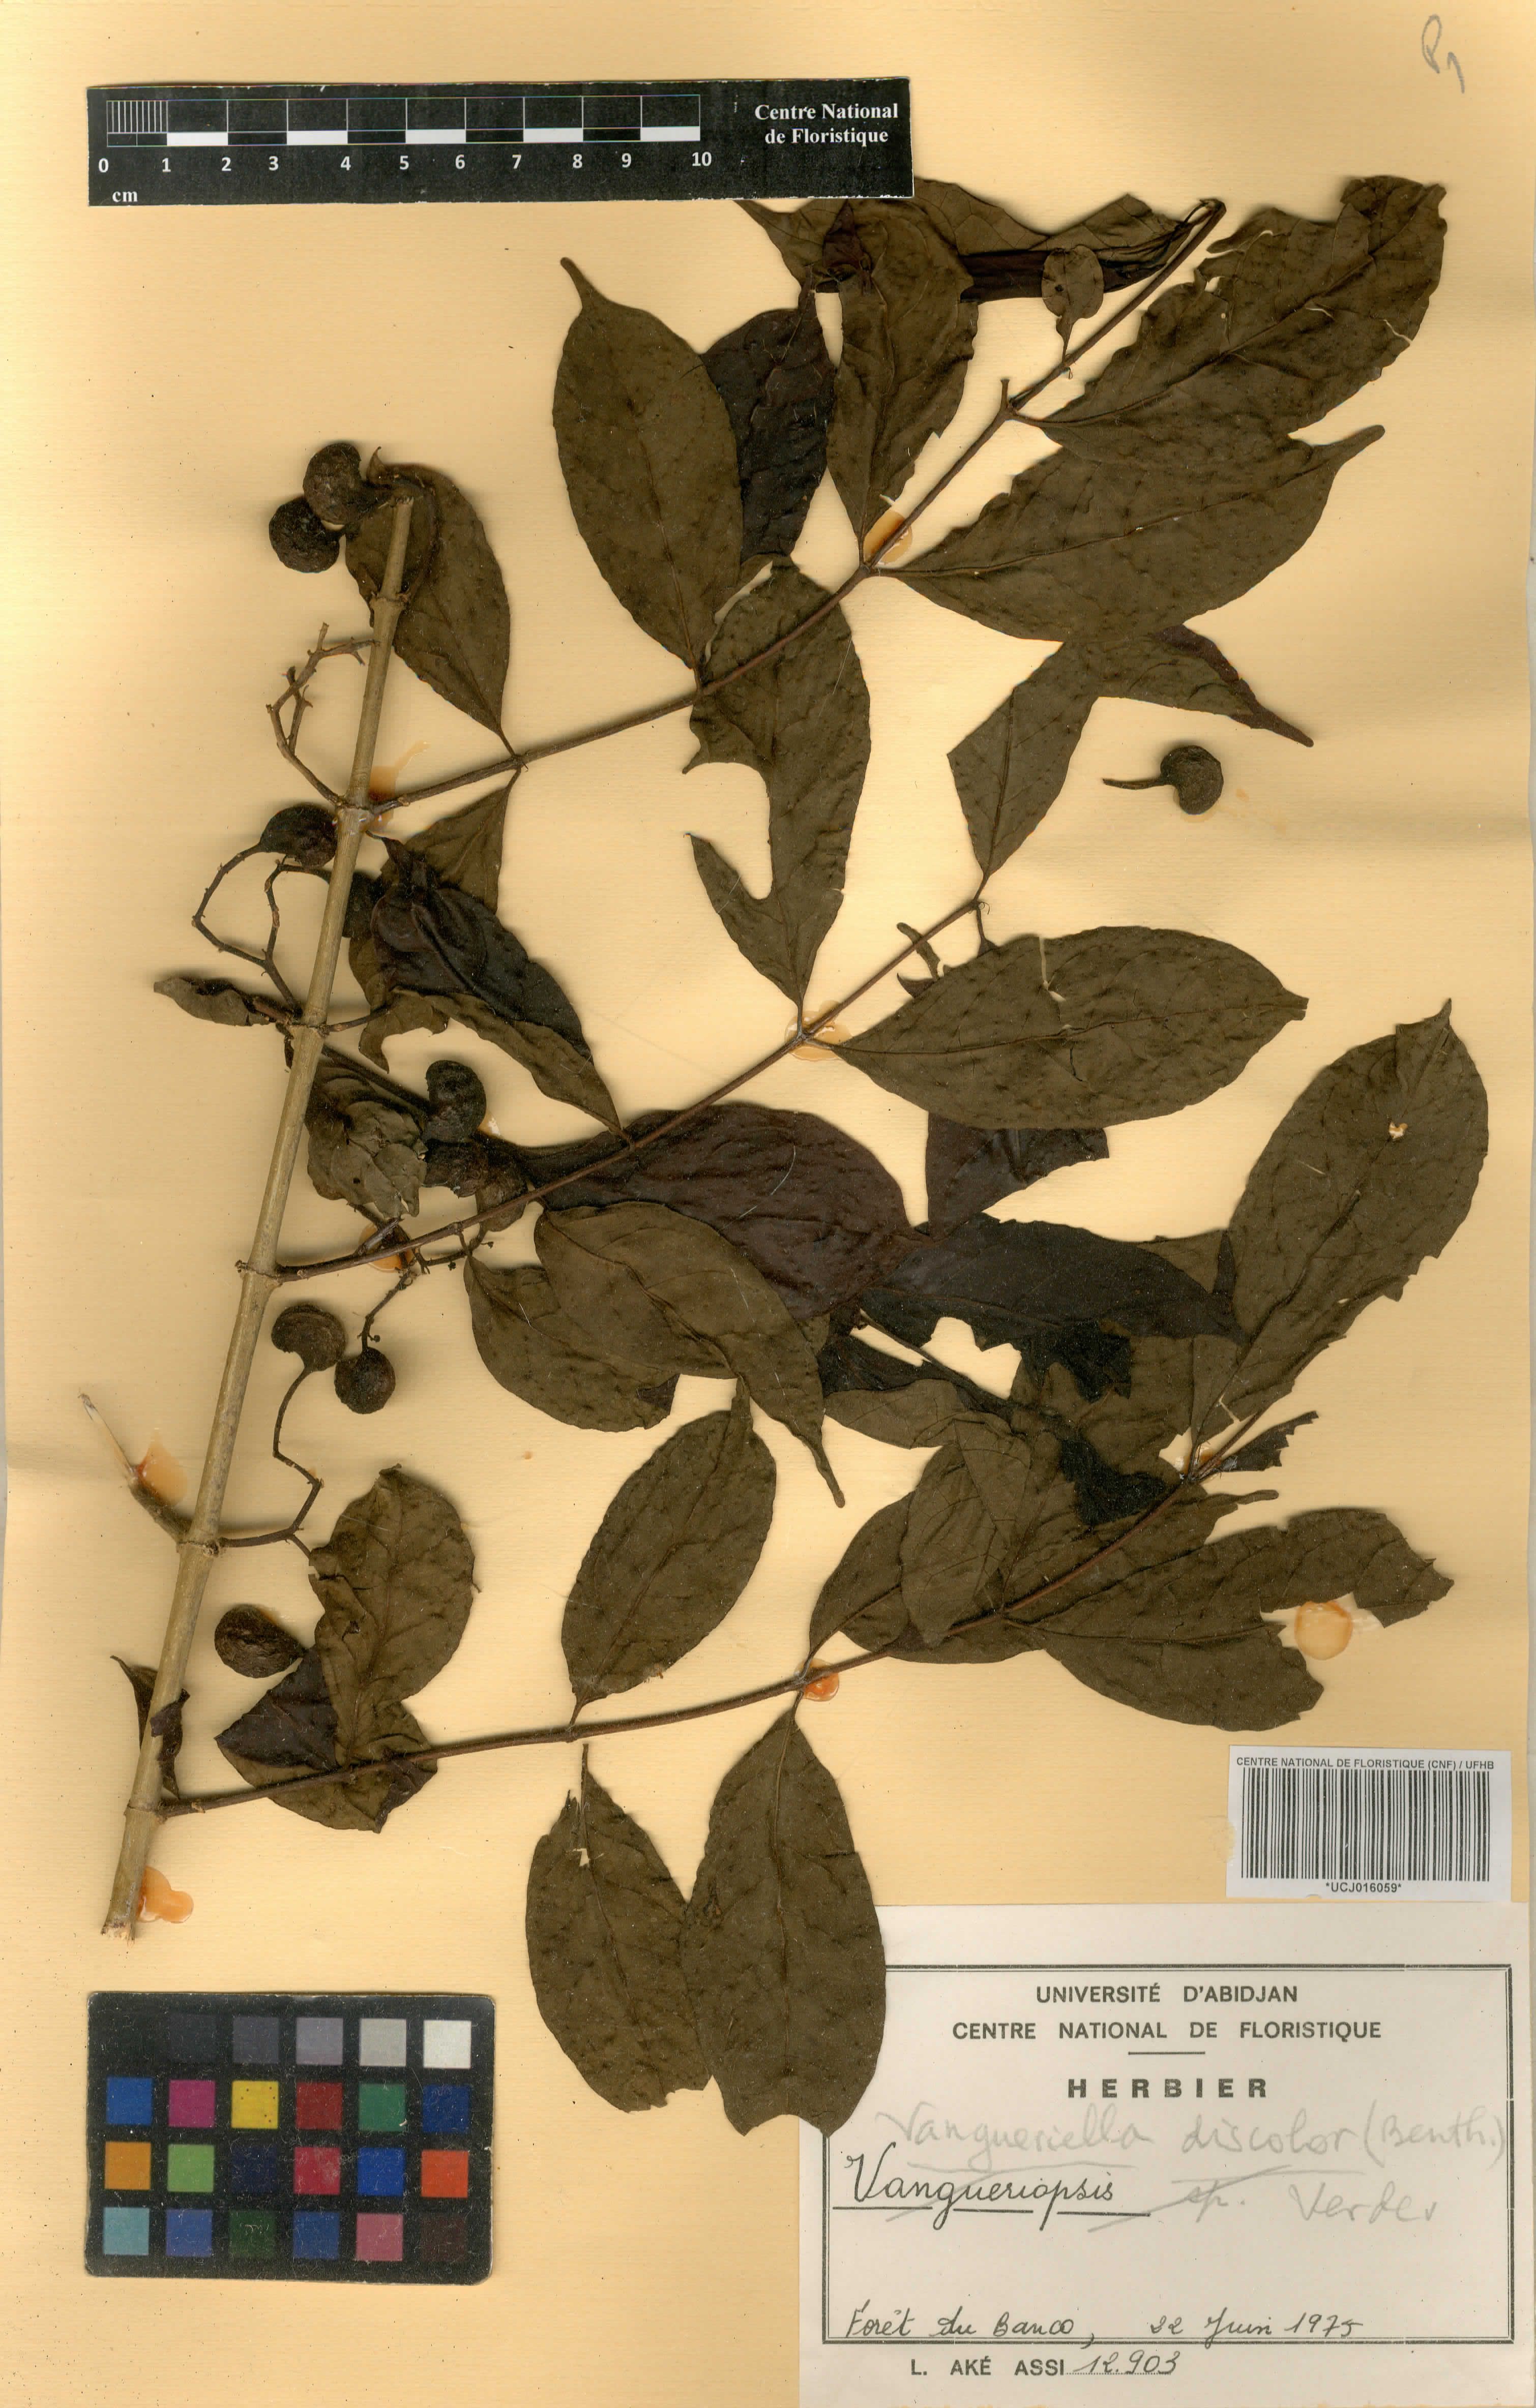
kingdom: Plantae
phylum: Tracheophyta
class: Magnoliopsida
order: Gentianales
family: Rubiaceae
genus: Vangueriella
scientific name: Vangueriella discolor
